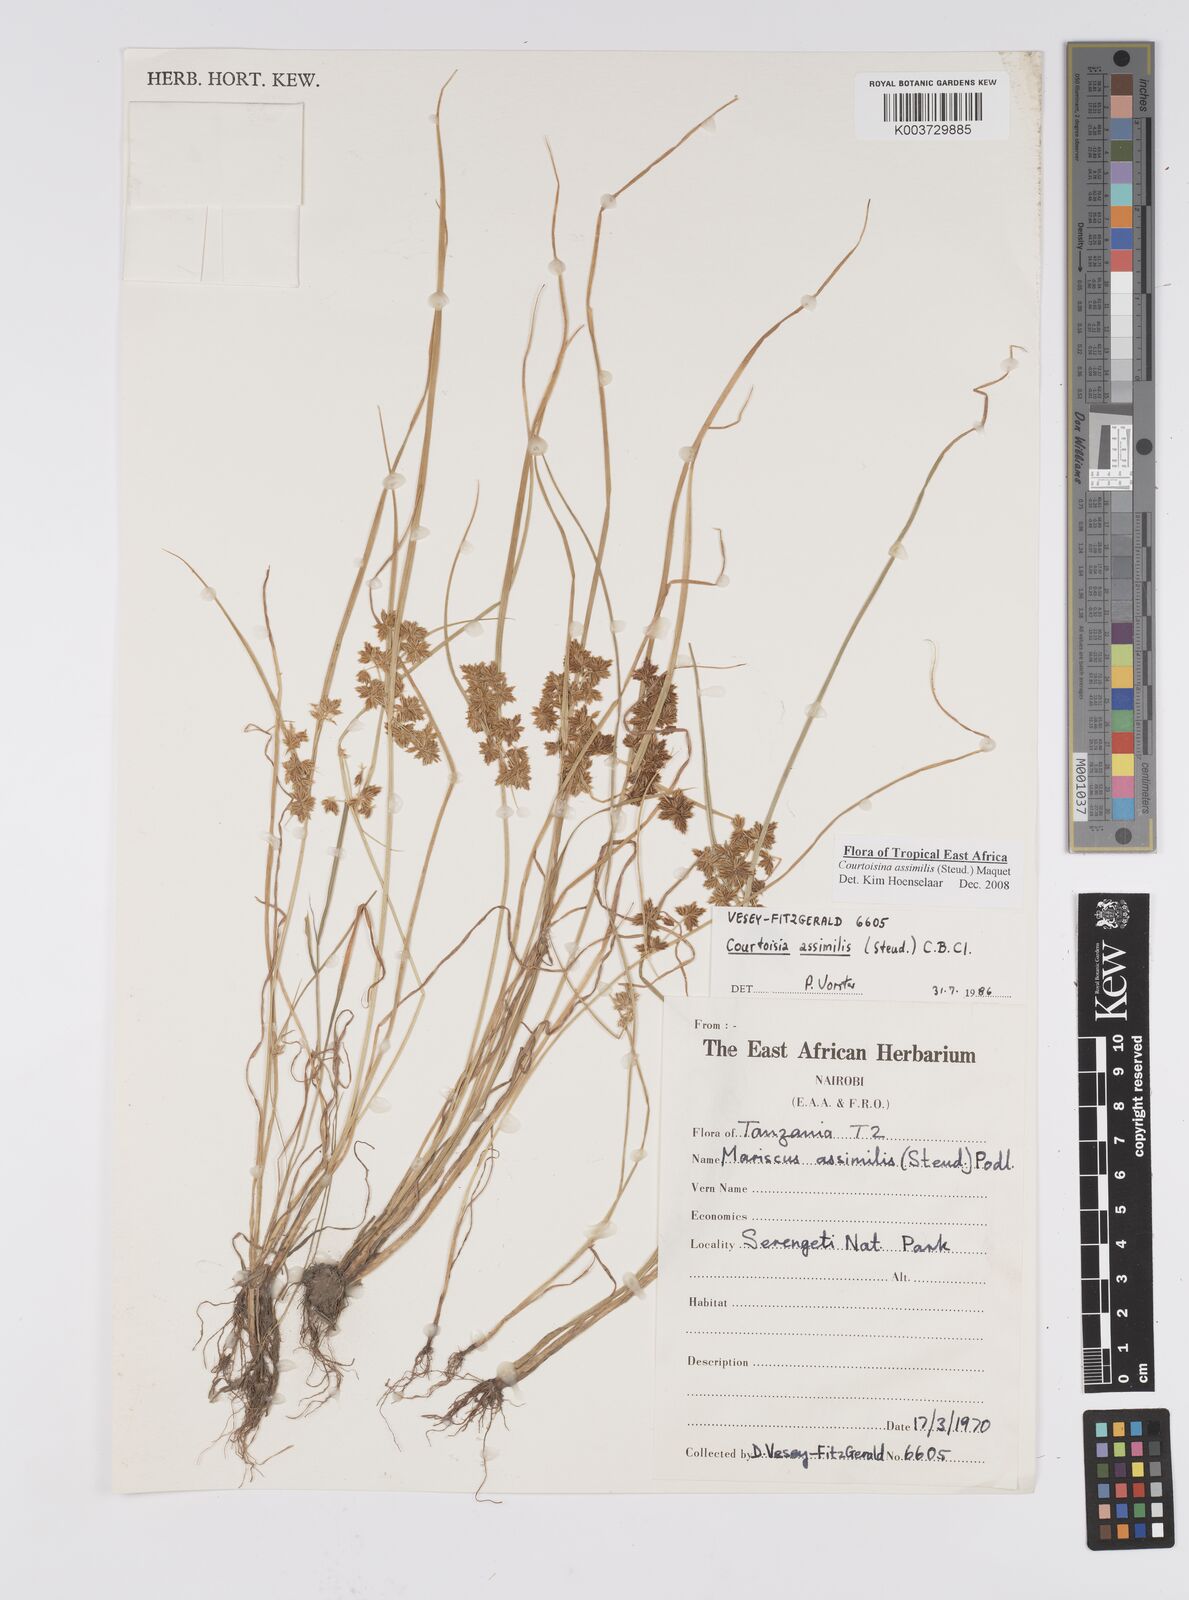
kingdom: Plantae
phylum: Tracheophyta
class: Liliopsida
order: Poales
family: Cyperaceae
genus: Cyperus
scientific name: Cyperus assimilis
